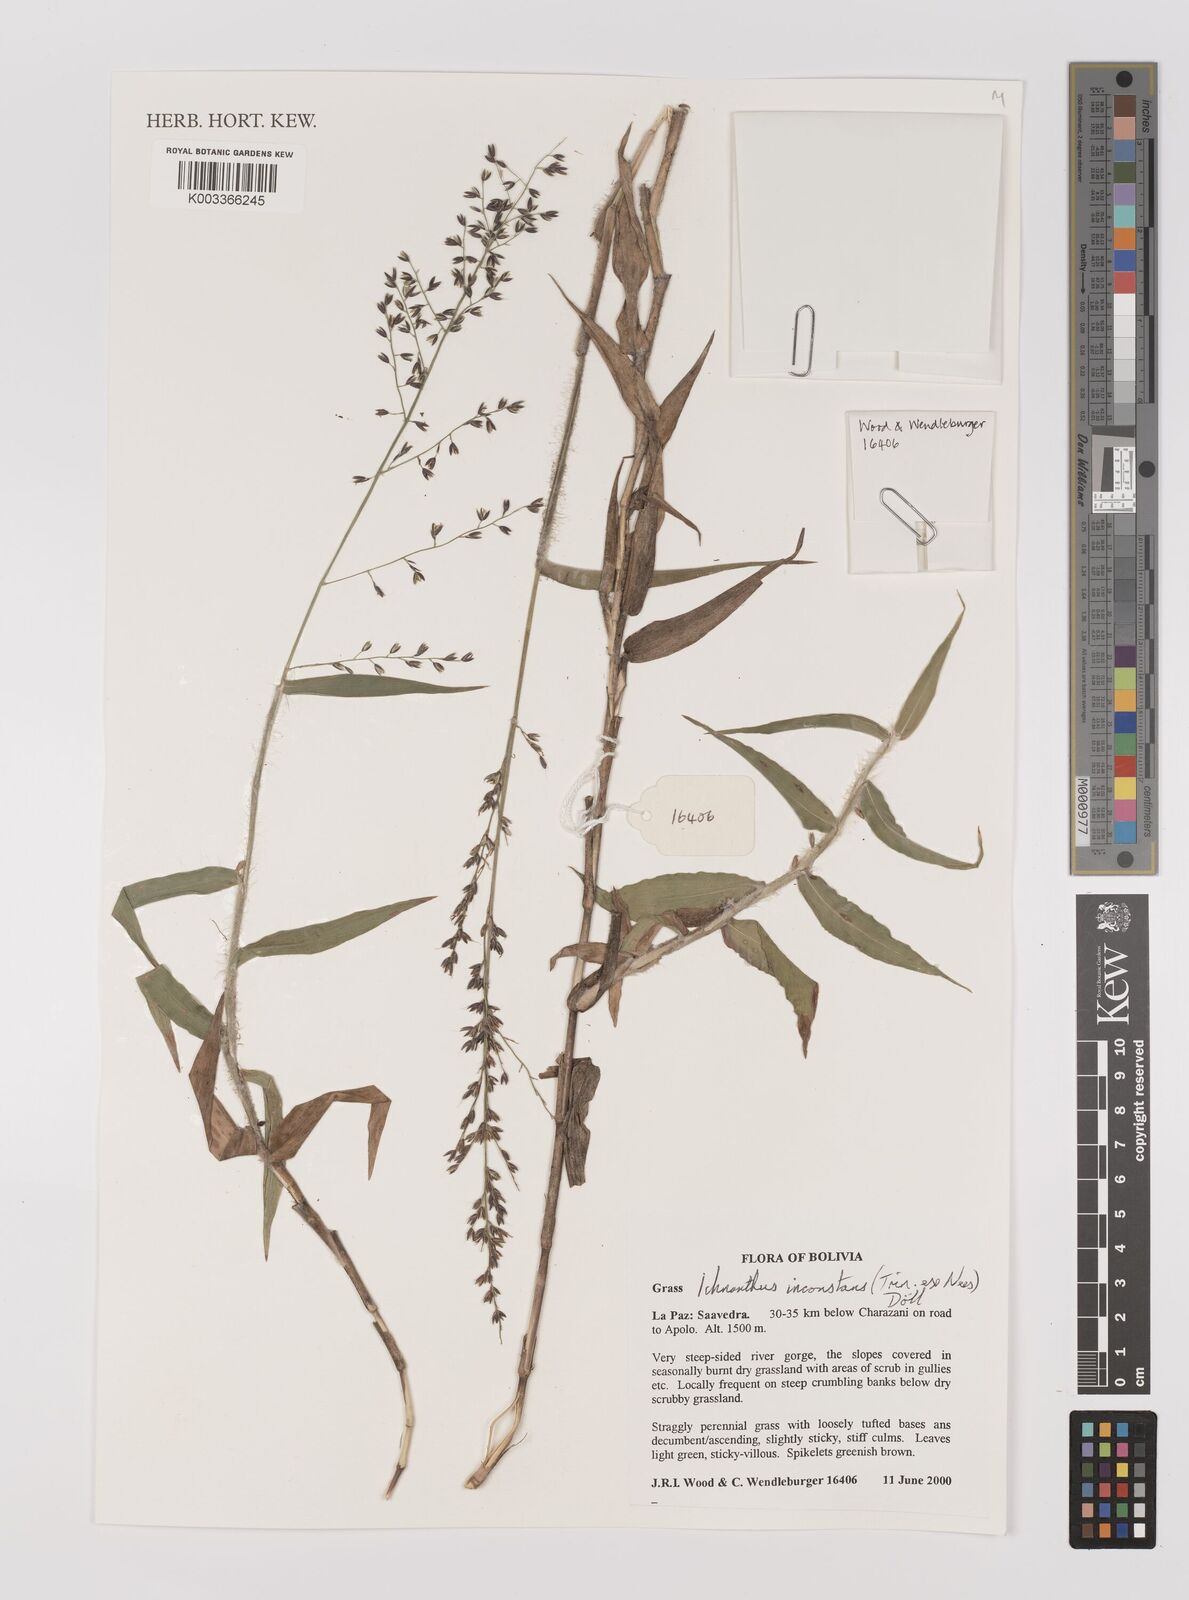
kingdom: Plantae
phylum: Tracheophyta
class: Liliopsida
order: Poales
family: Poaceae
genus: Ichnanthus
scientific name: Ichnanthus inconstans
